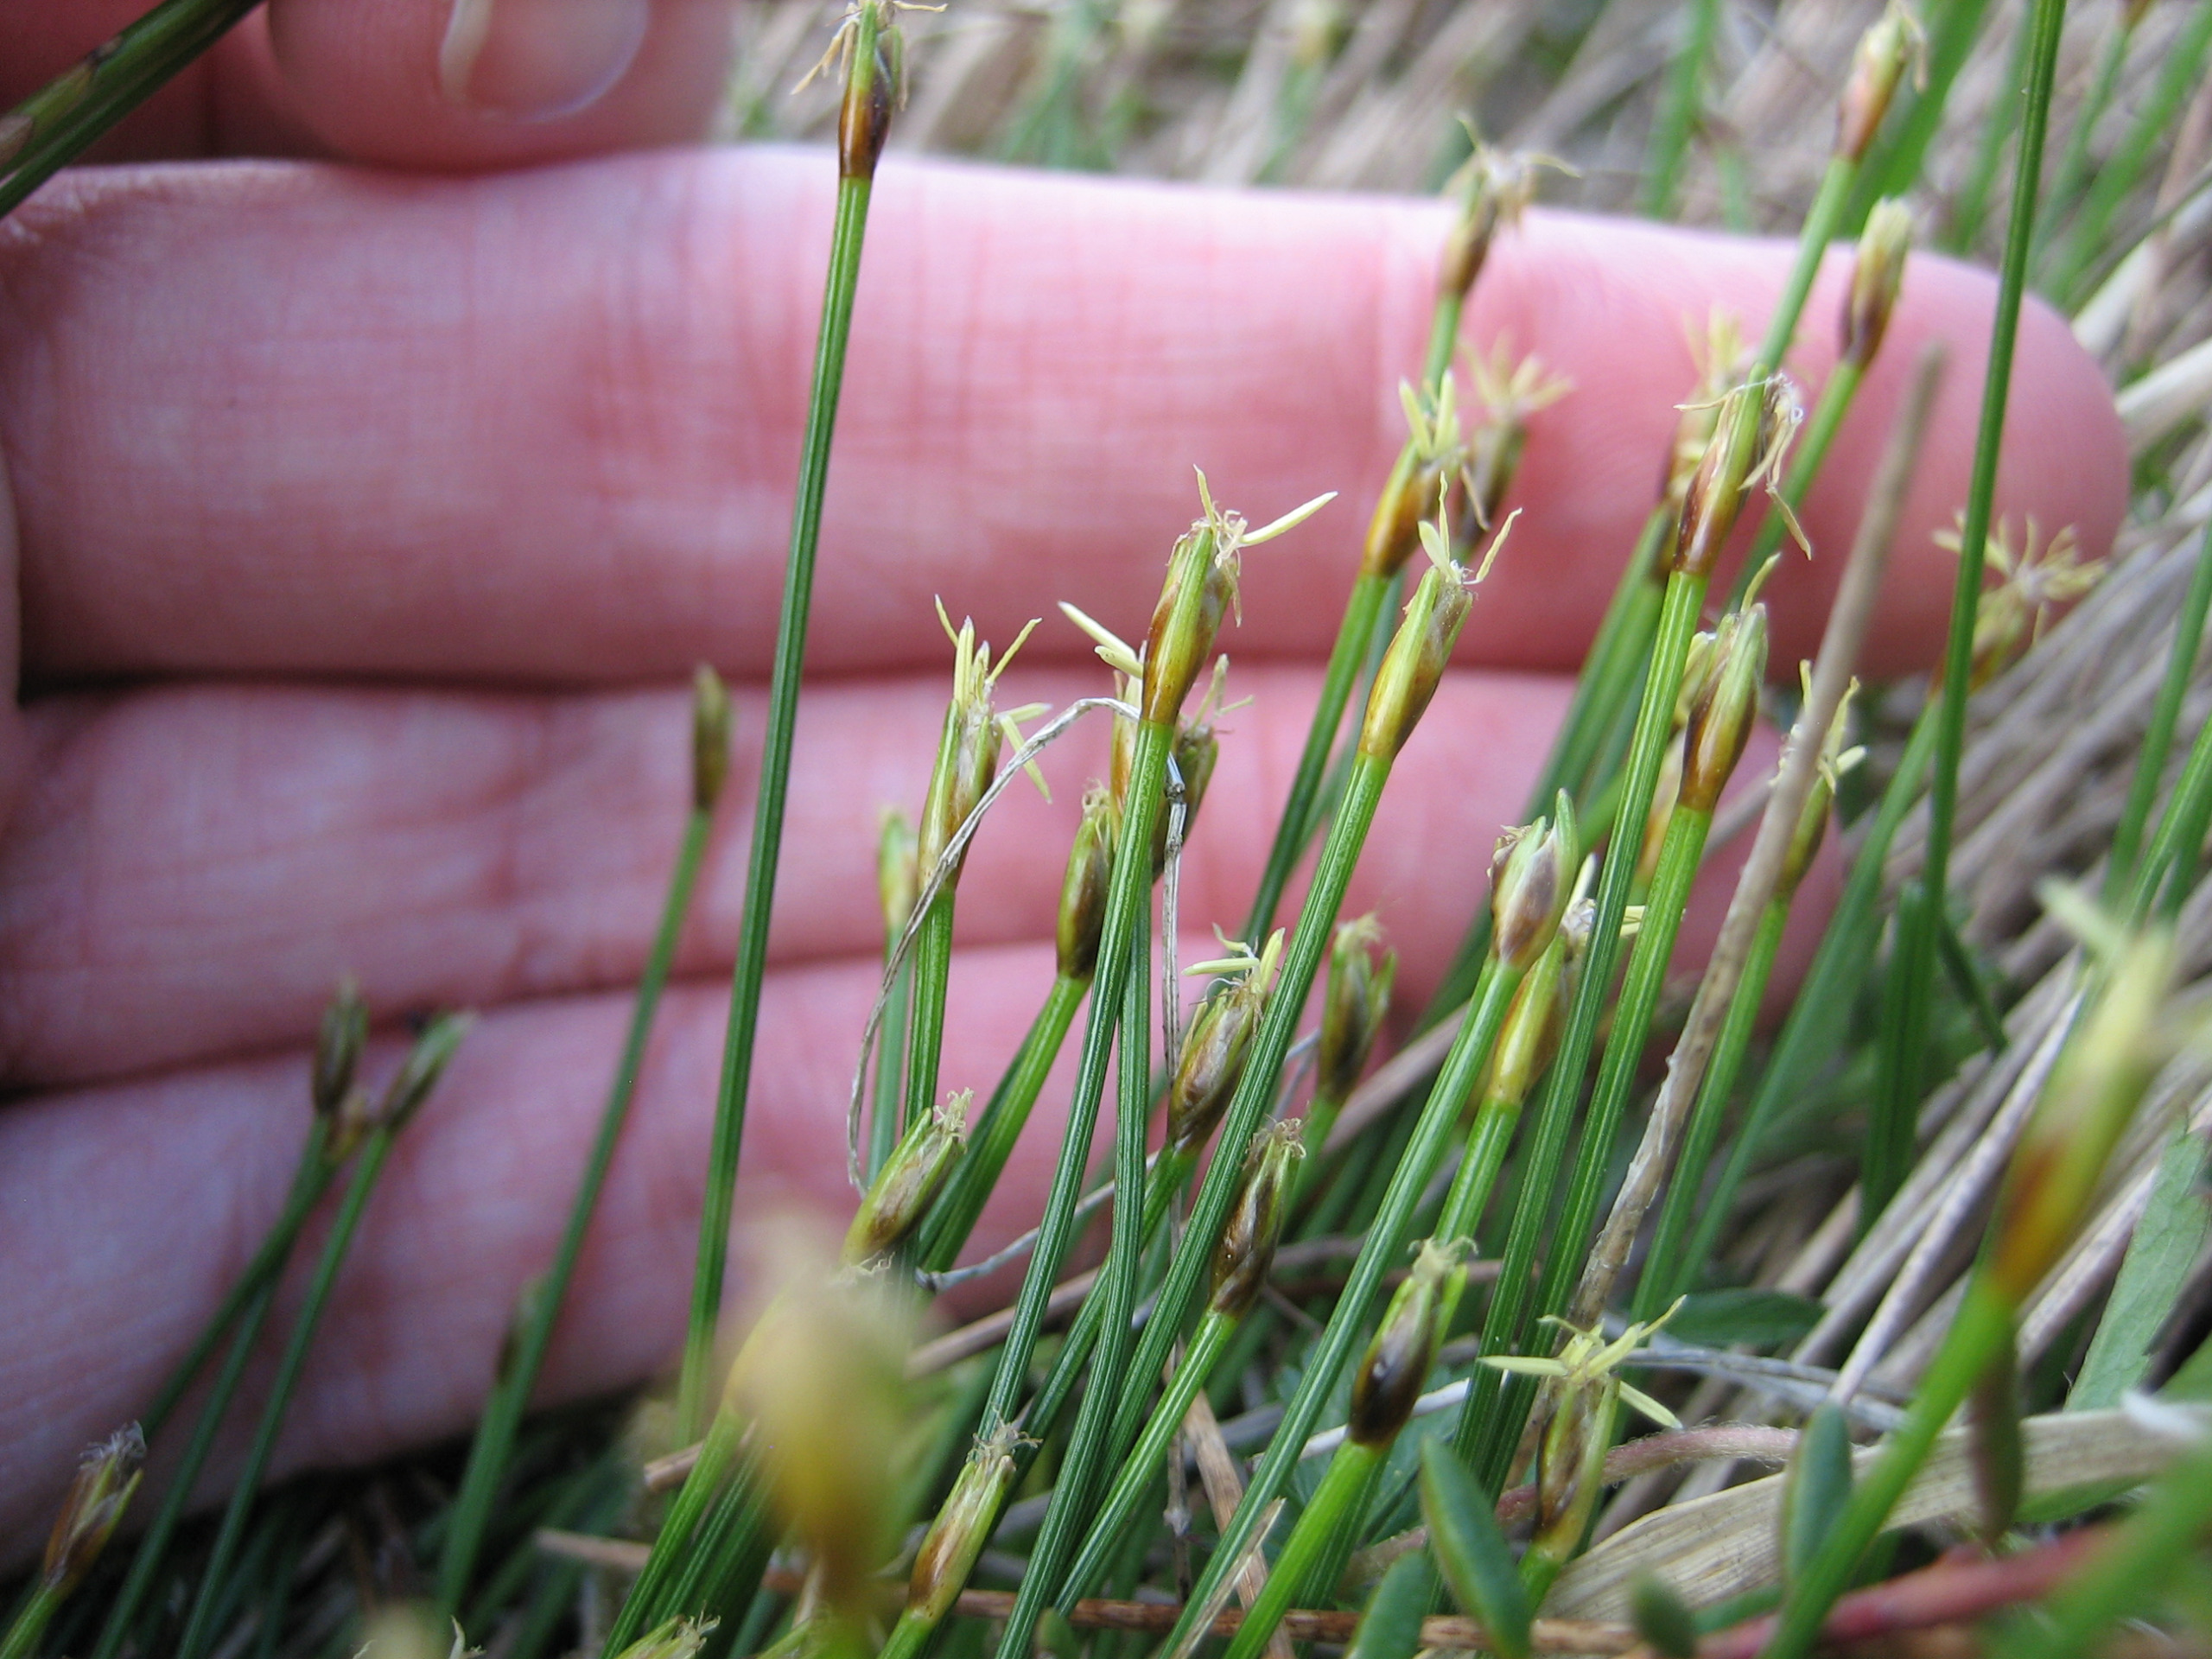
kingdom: Plantae
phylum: Tracheophyta
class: Liliopsida
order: Poales
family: Cyperaceae
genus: Trichophorum
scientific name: Trichophorum cespitosum
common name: Vestlig tuekogleaks
